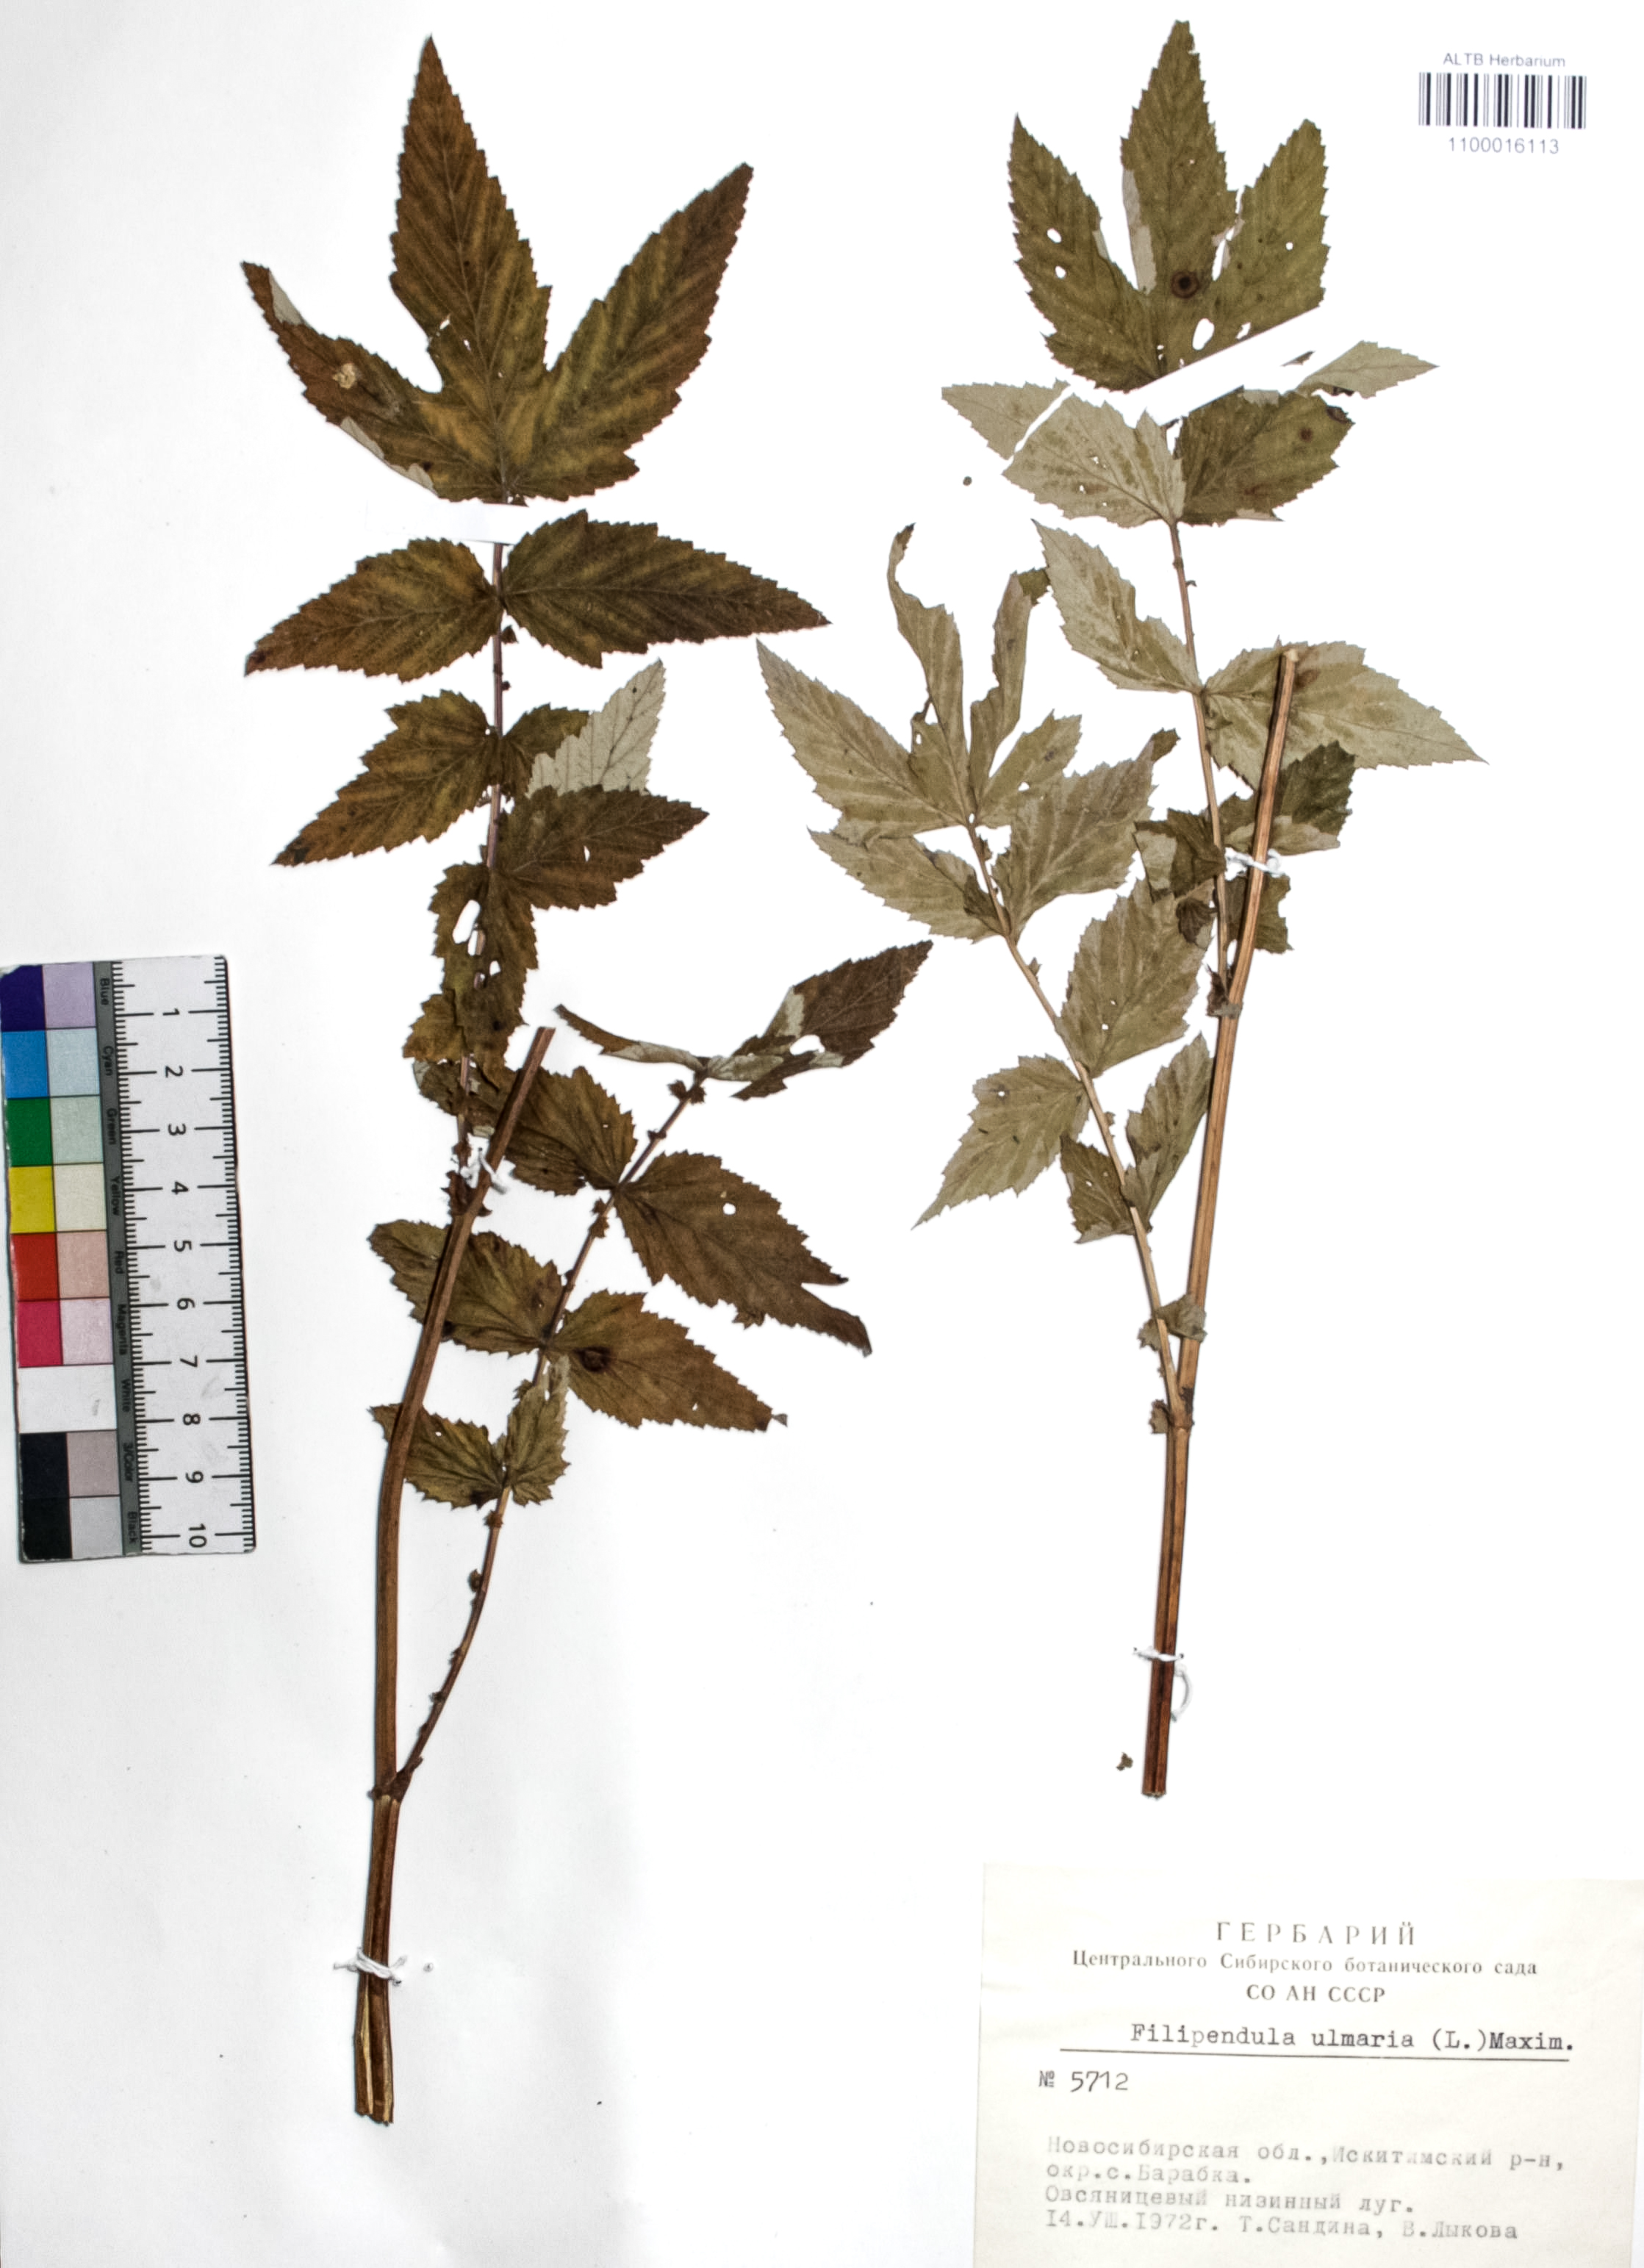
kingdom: Plantae
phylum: Tracheophyta
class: Magnoliopsida
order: Rosales
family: Rosaceae
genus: Filipendula
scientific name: Filipendula ulmaria
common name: Meadowsweet
